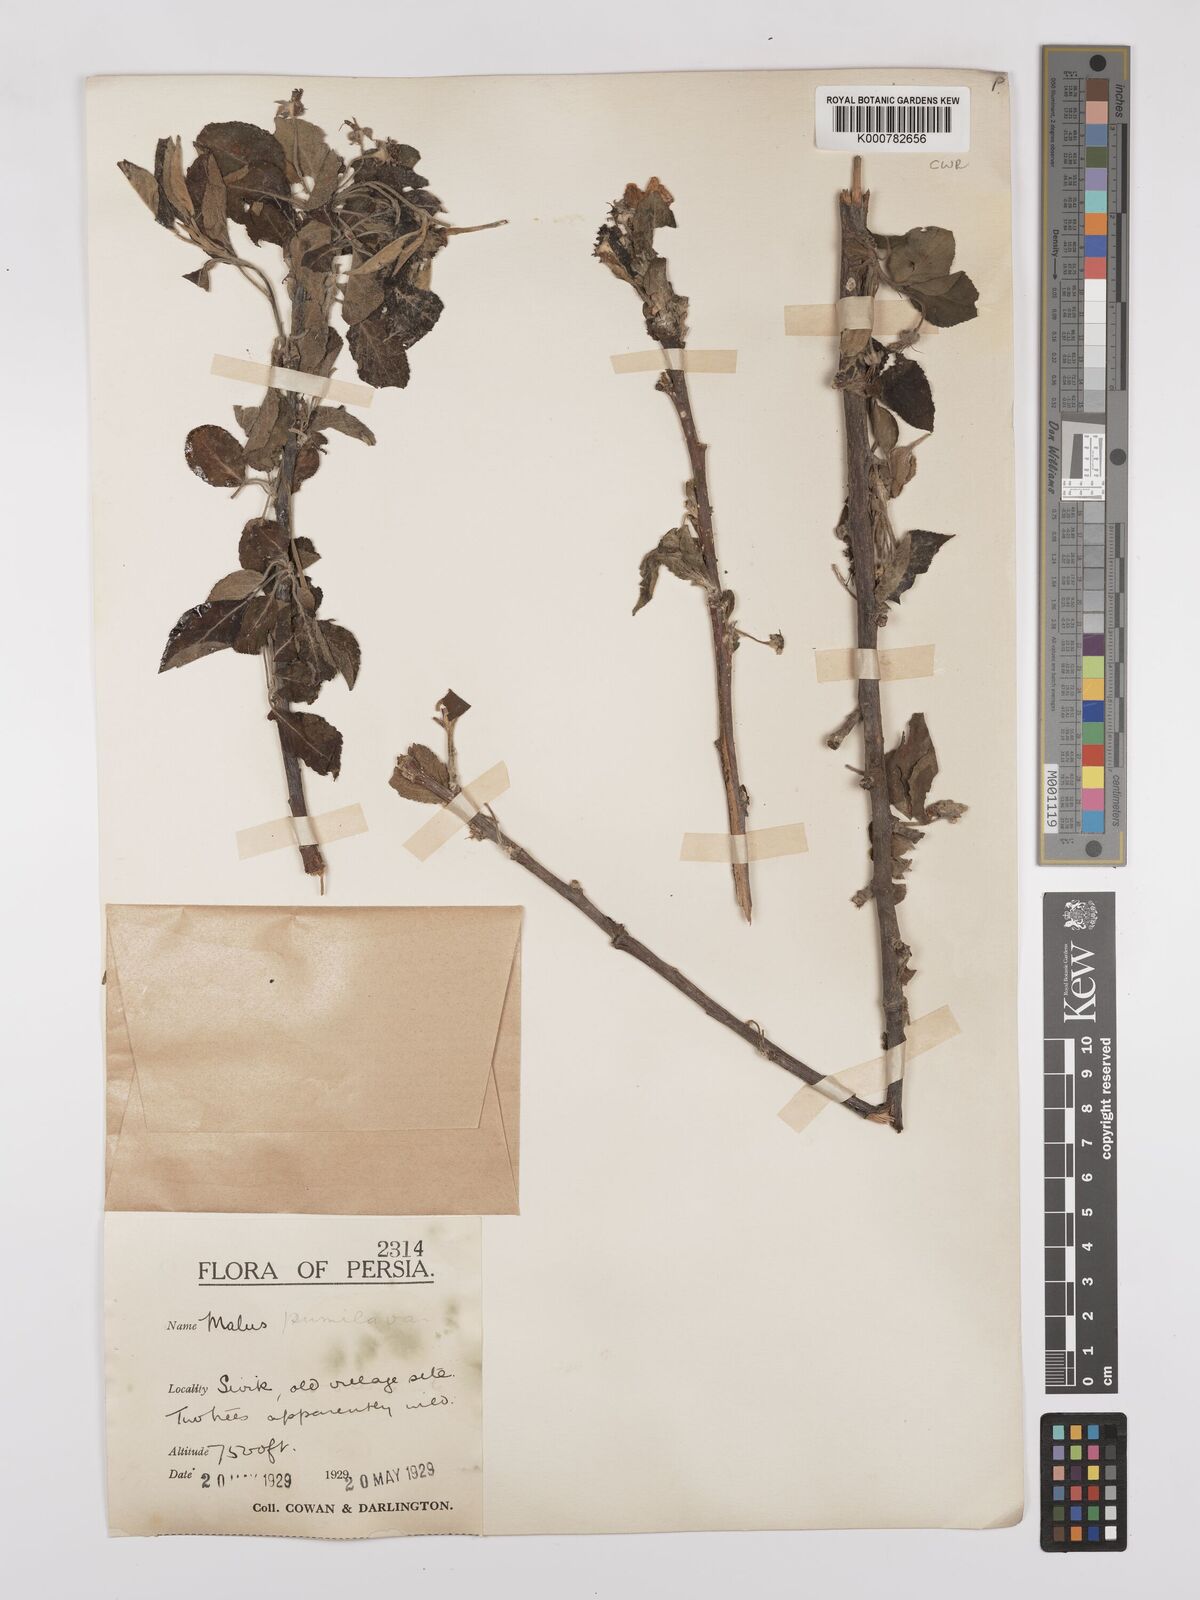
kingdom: Plantae
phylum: Tracheophyta
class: Magnoliopsida
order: Rosales
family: Rosaceae
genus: Malus
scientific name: Malus domestica
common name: Apple
